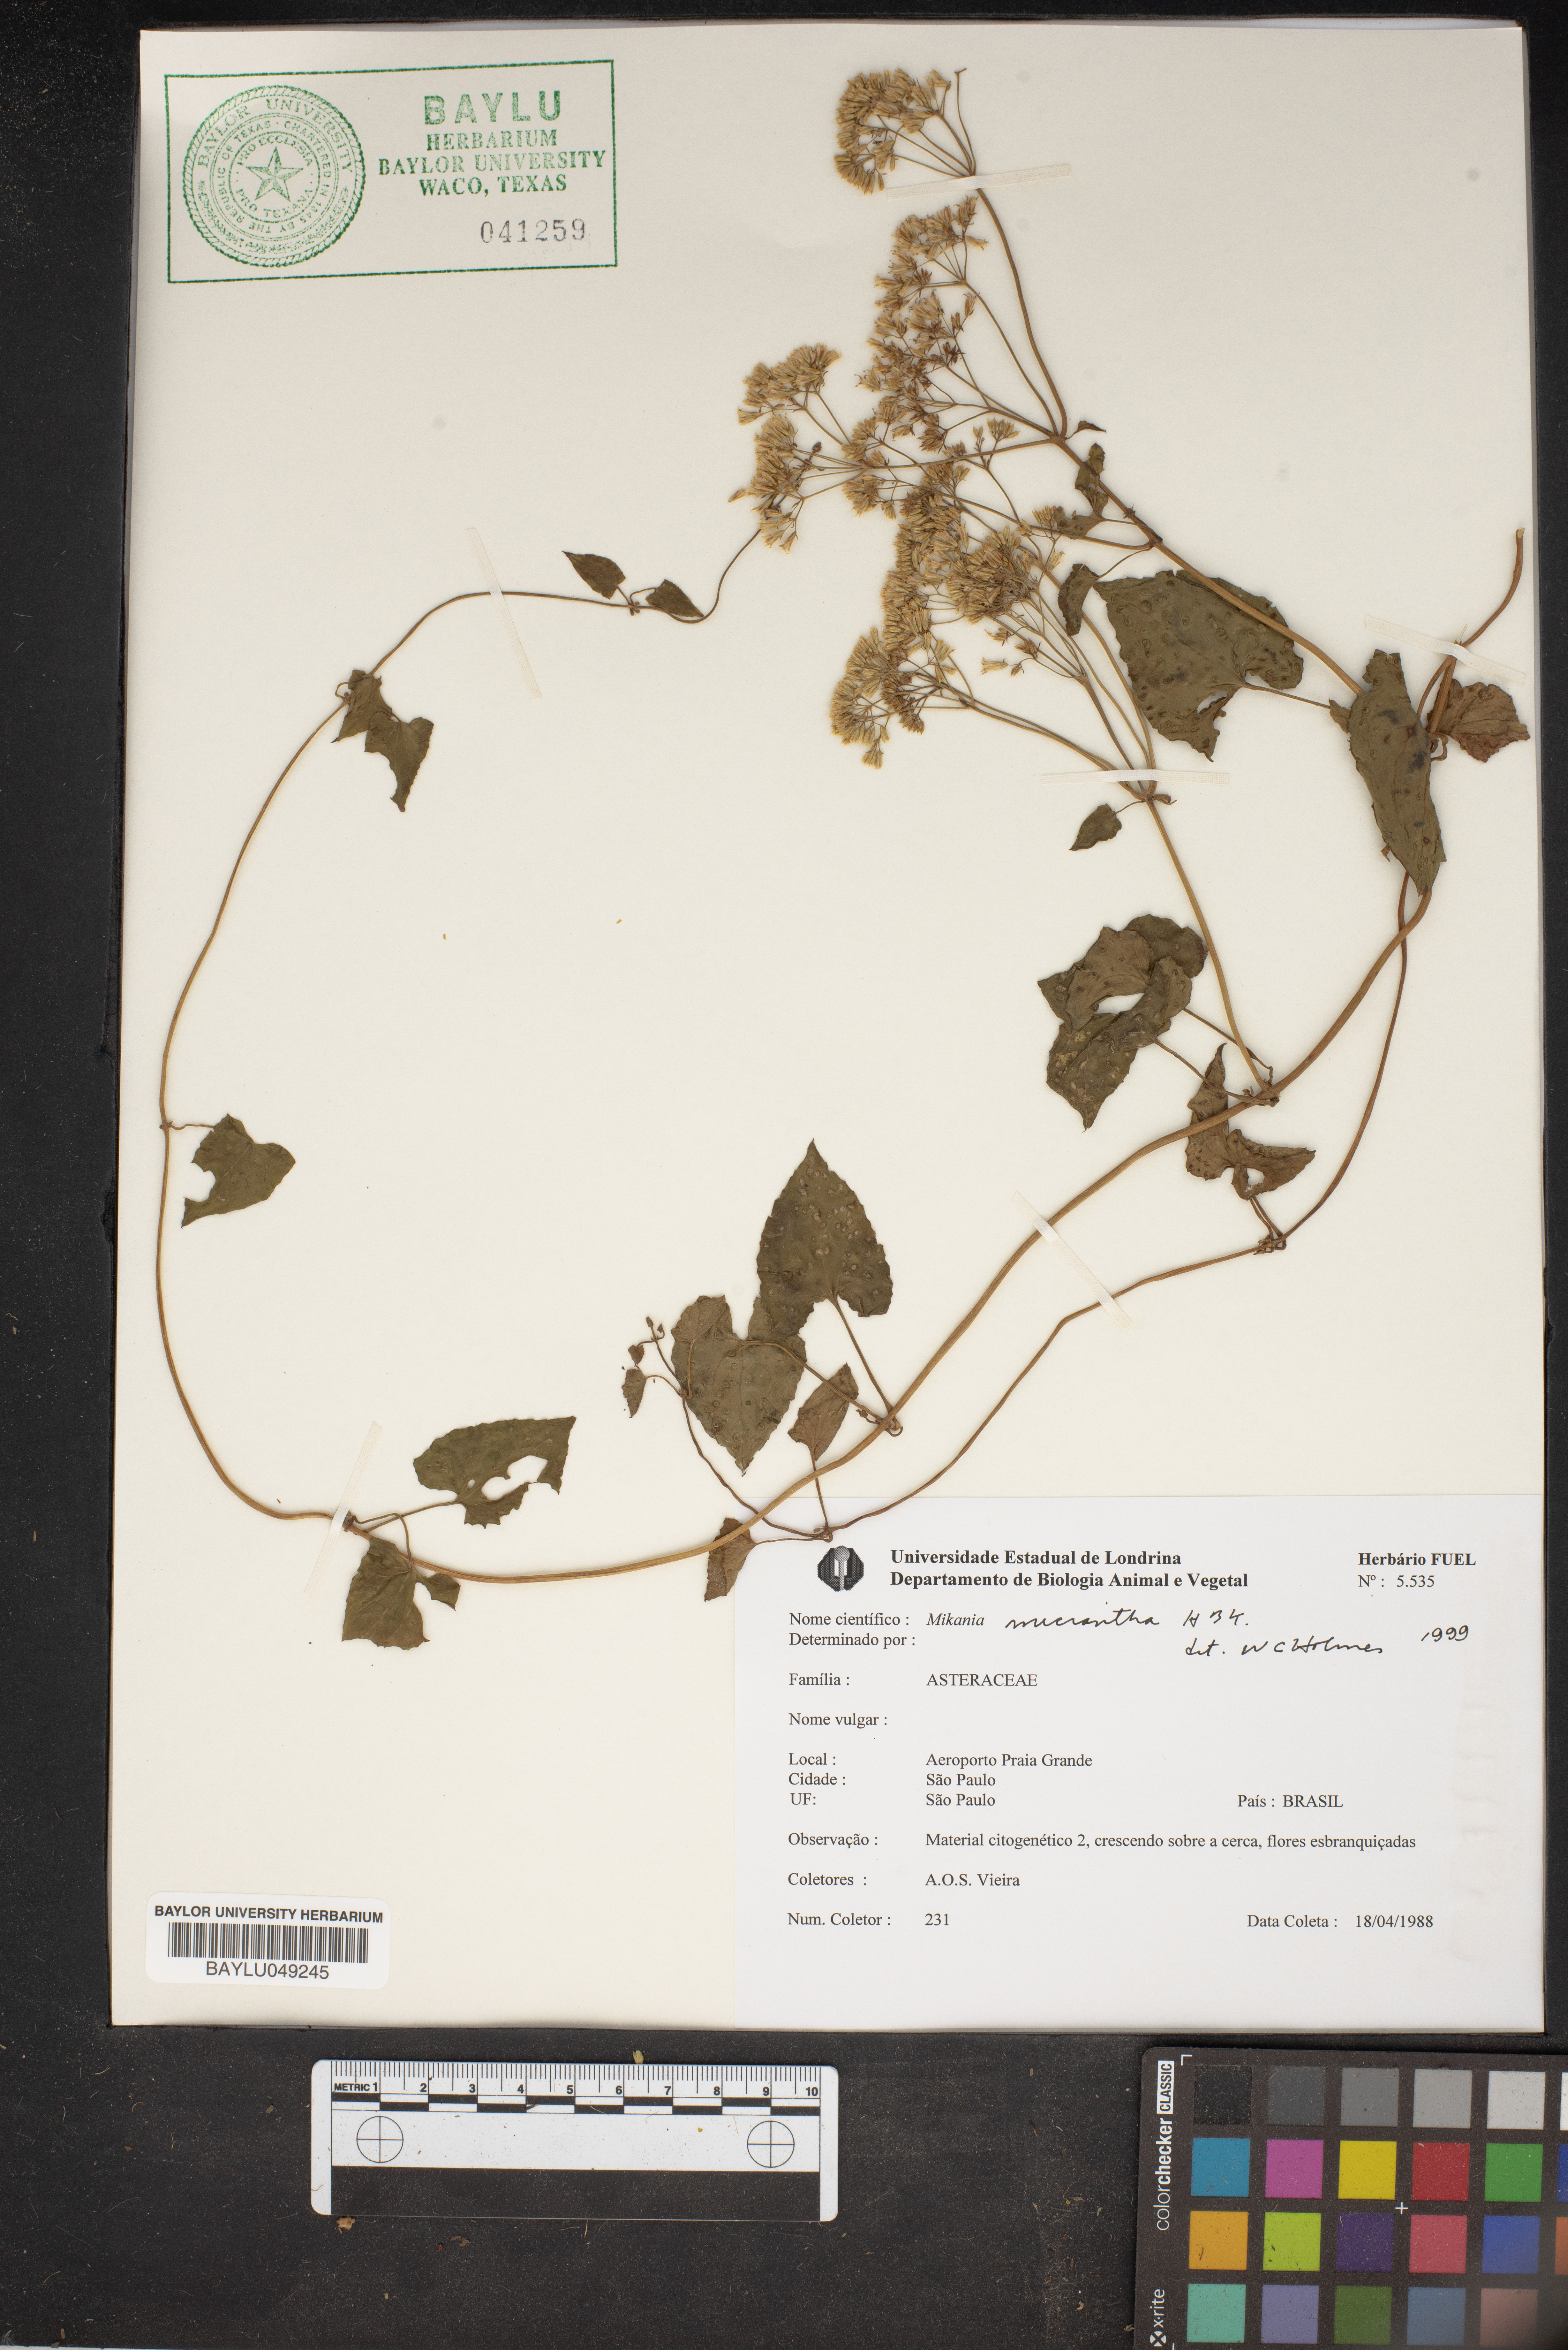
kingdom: Plantae
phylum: Tracheophyta
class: Magnoliopsida
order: Asterales
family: Asteraceae
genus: Mikania
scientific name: Mikania micrantha
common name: Mile-a-minute
